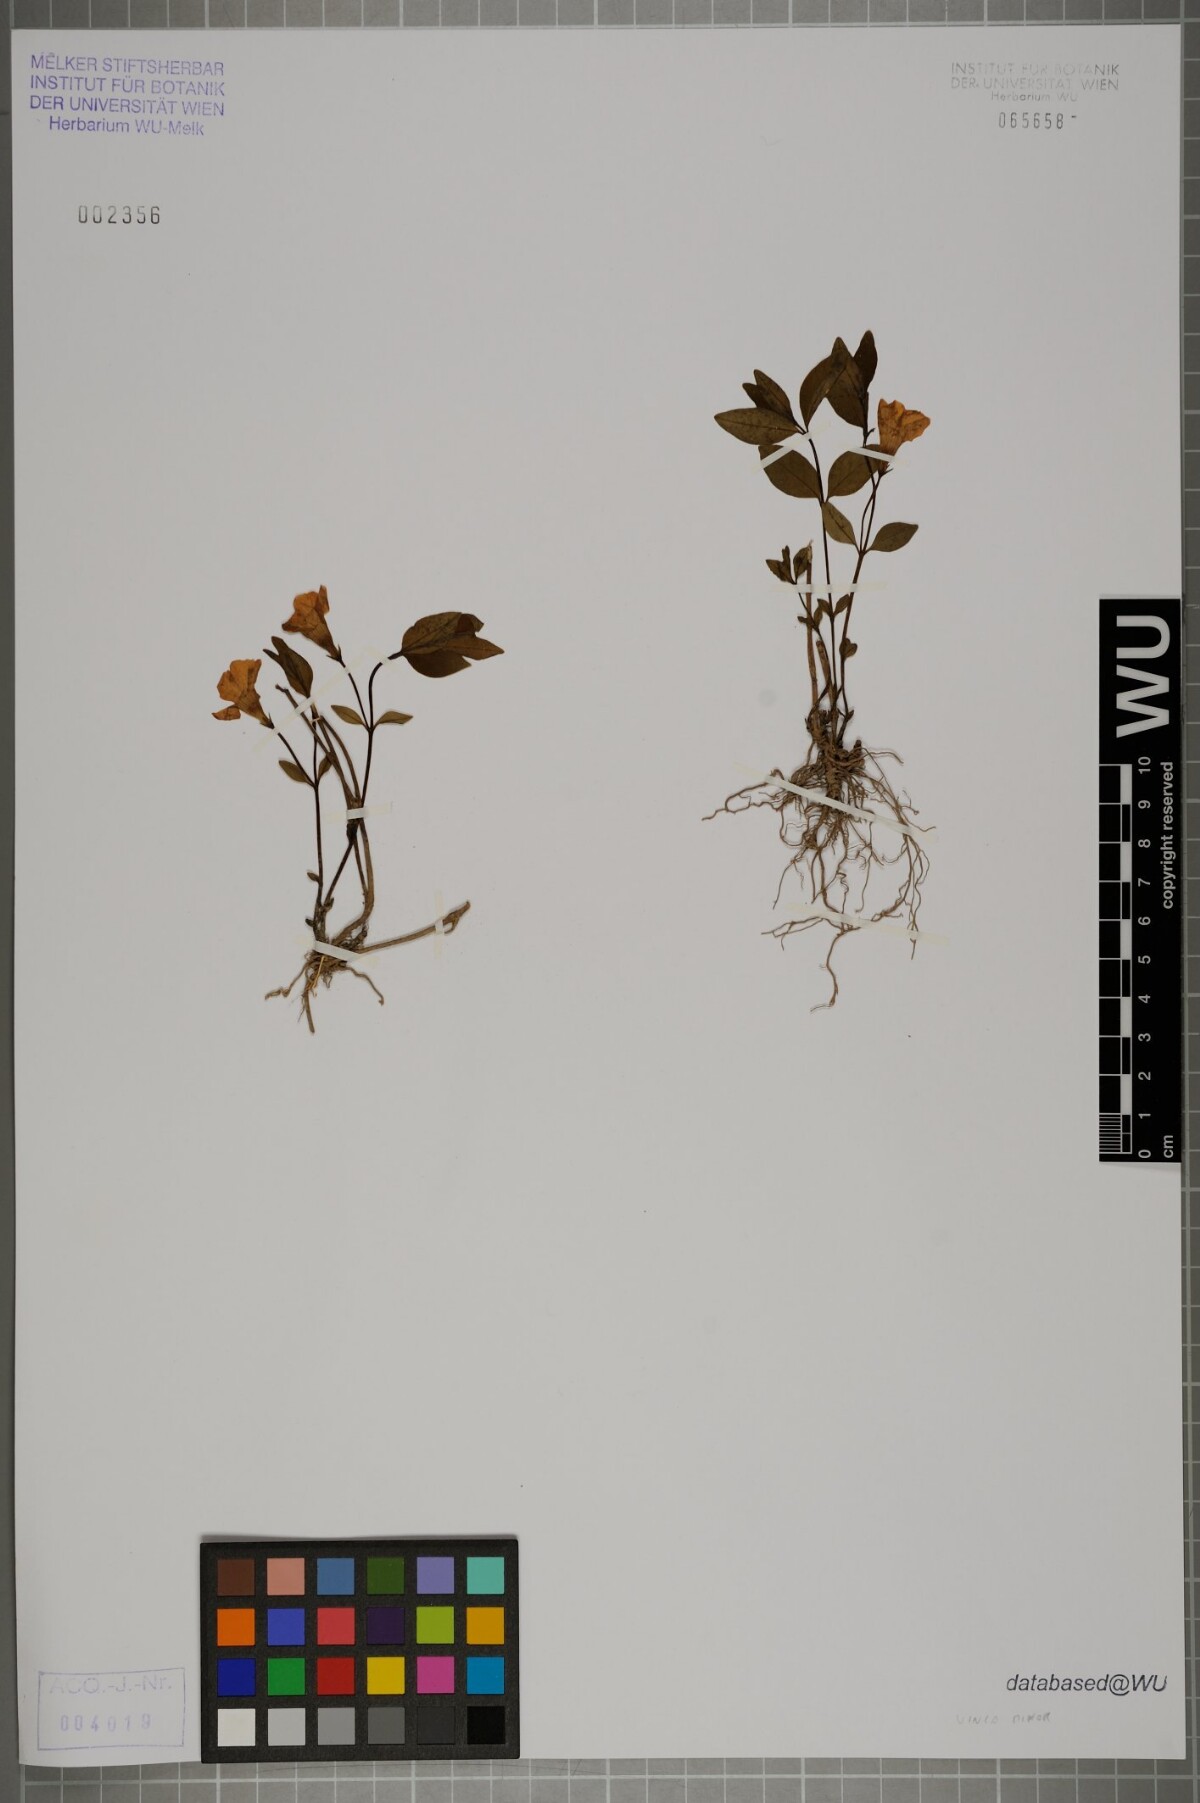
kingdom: Plantae
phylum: Tracheophyta
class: Magnoliopsida
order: Gentianales
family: Apocynaceae
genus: Vinca
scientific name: Vinca minor
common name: Lesser periwinkle
